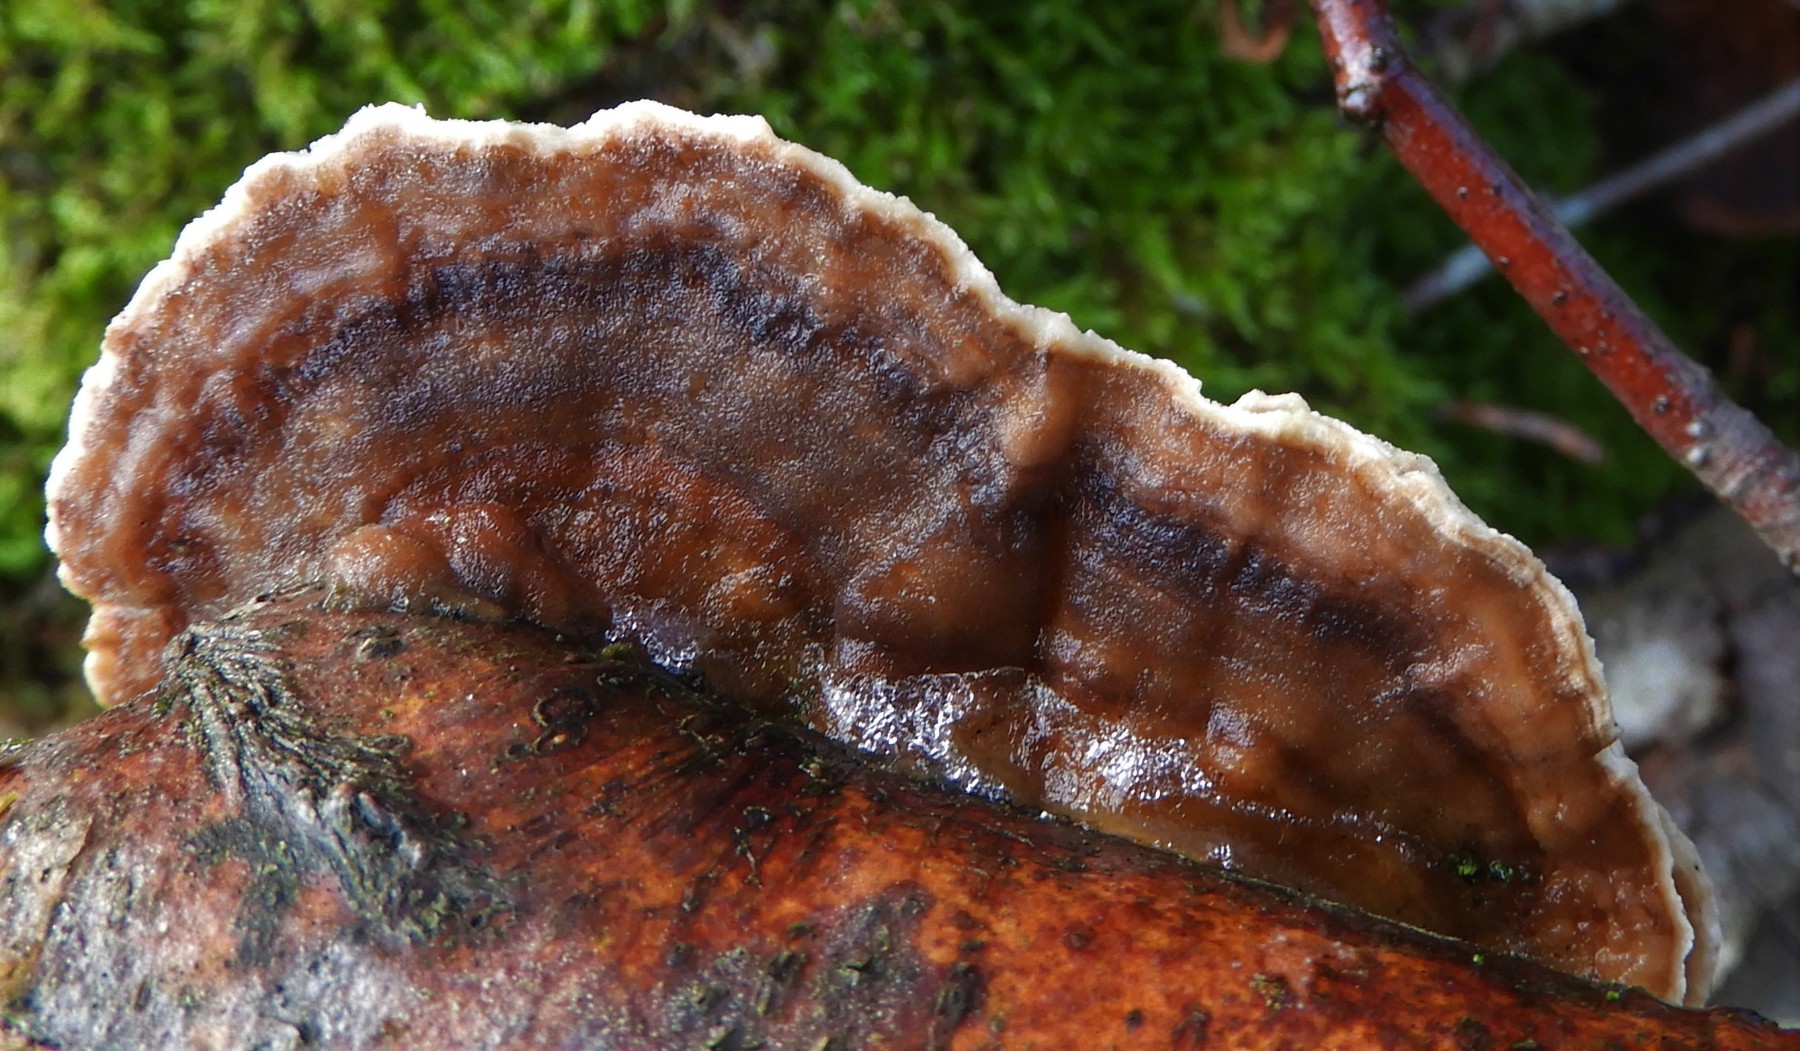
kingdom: Fungi
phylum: Basidiomycota
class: Agaricomycetes
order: Polyporales
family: Polyporaceae
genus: Trametes
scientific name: Trametes versicolor
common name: broget læderporesvamp
